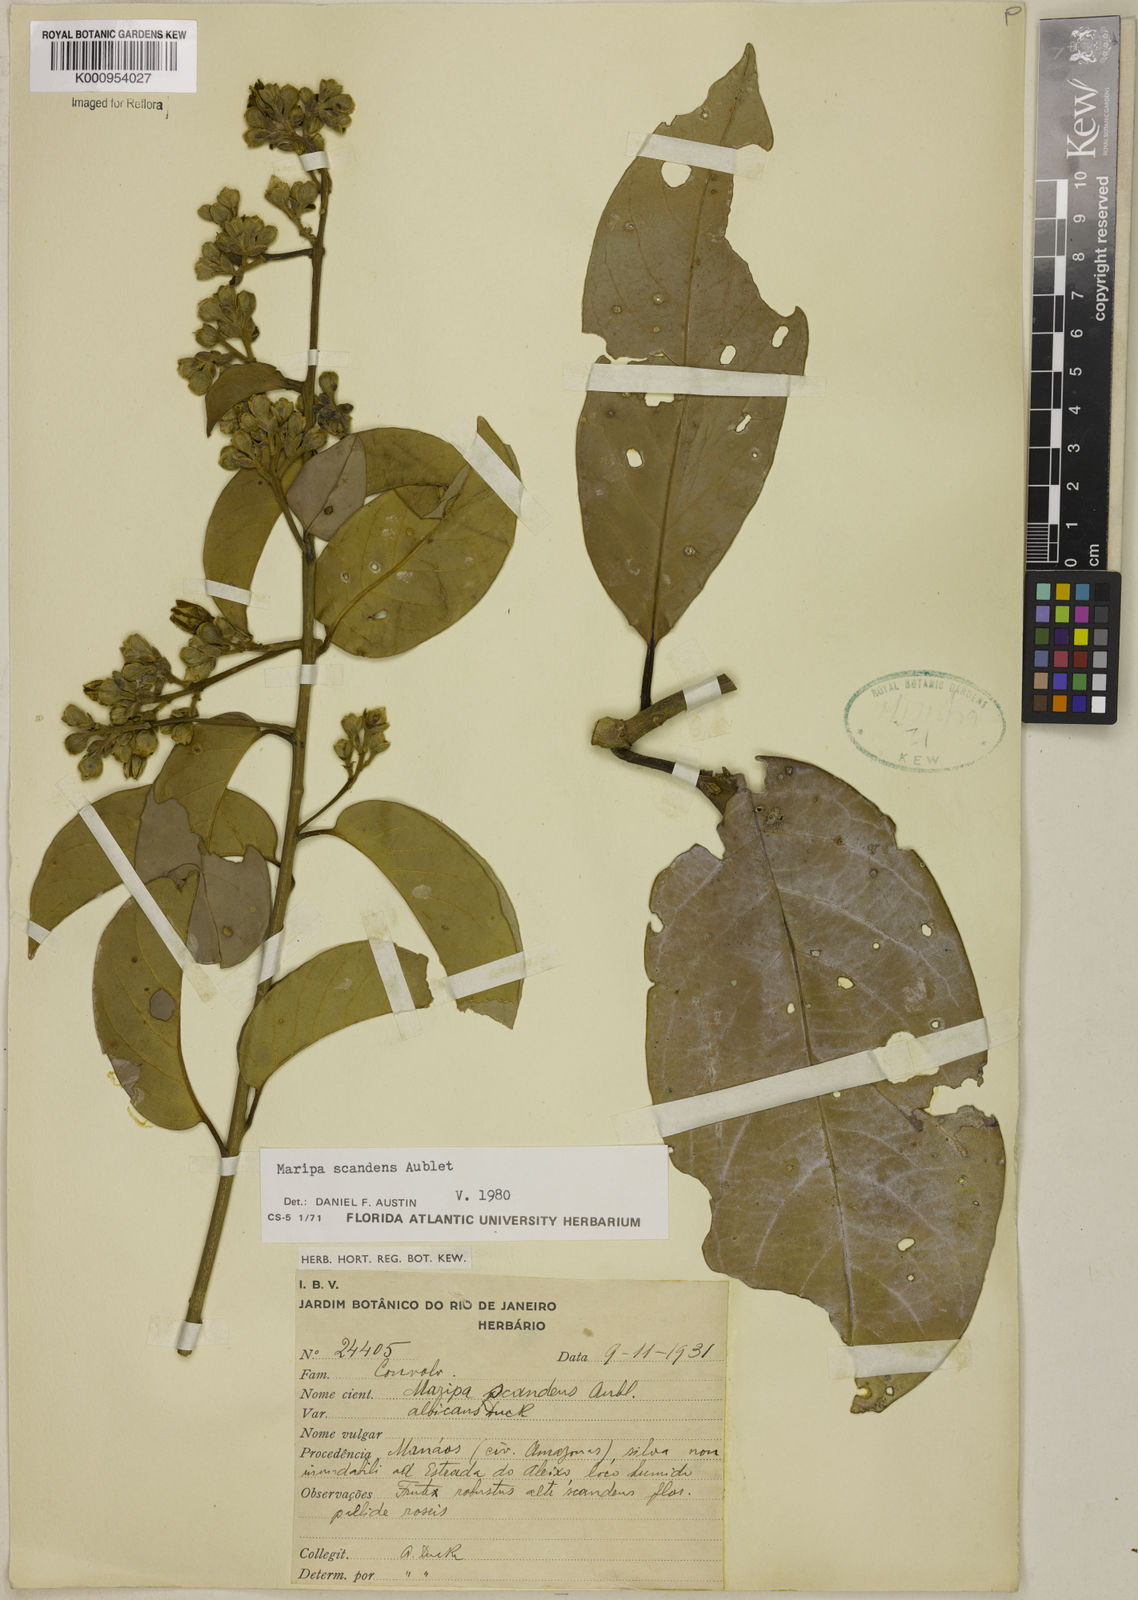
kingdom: Plantae
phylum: Tracheophyta
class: Magnoliopsida
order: Solanales
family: Convolvulaceae
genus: Maripa
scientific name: Maripa scandens
